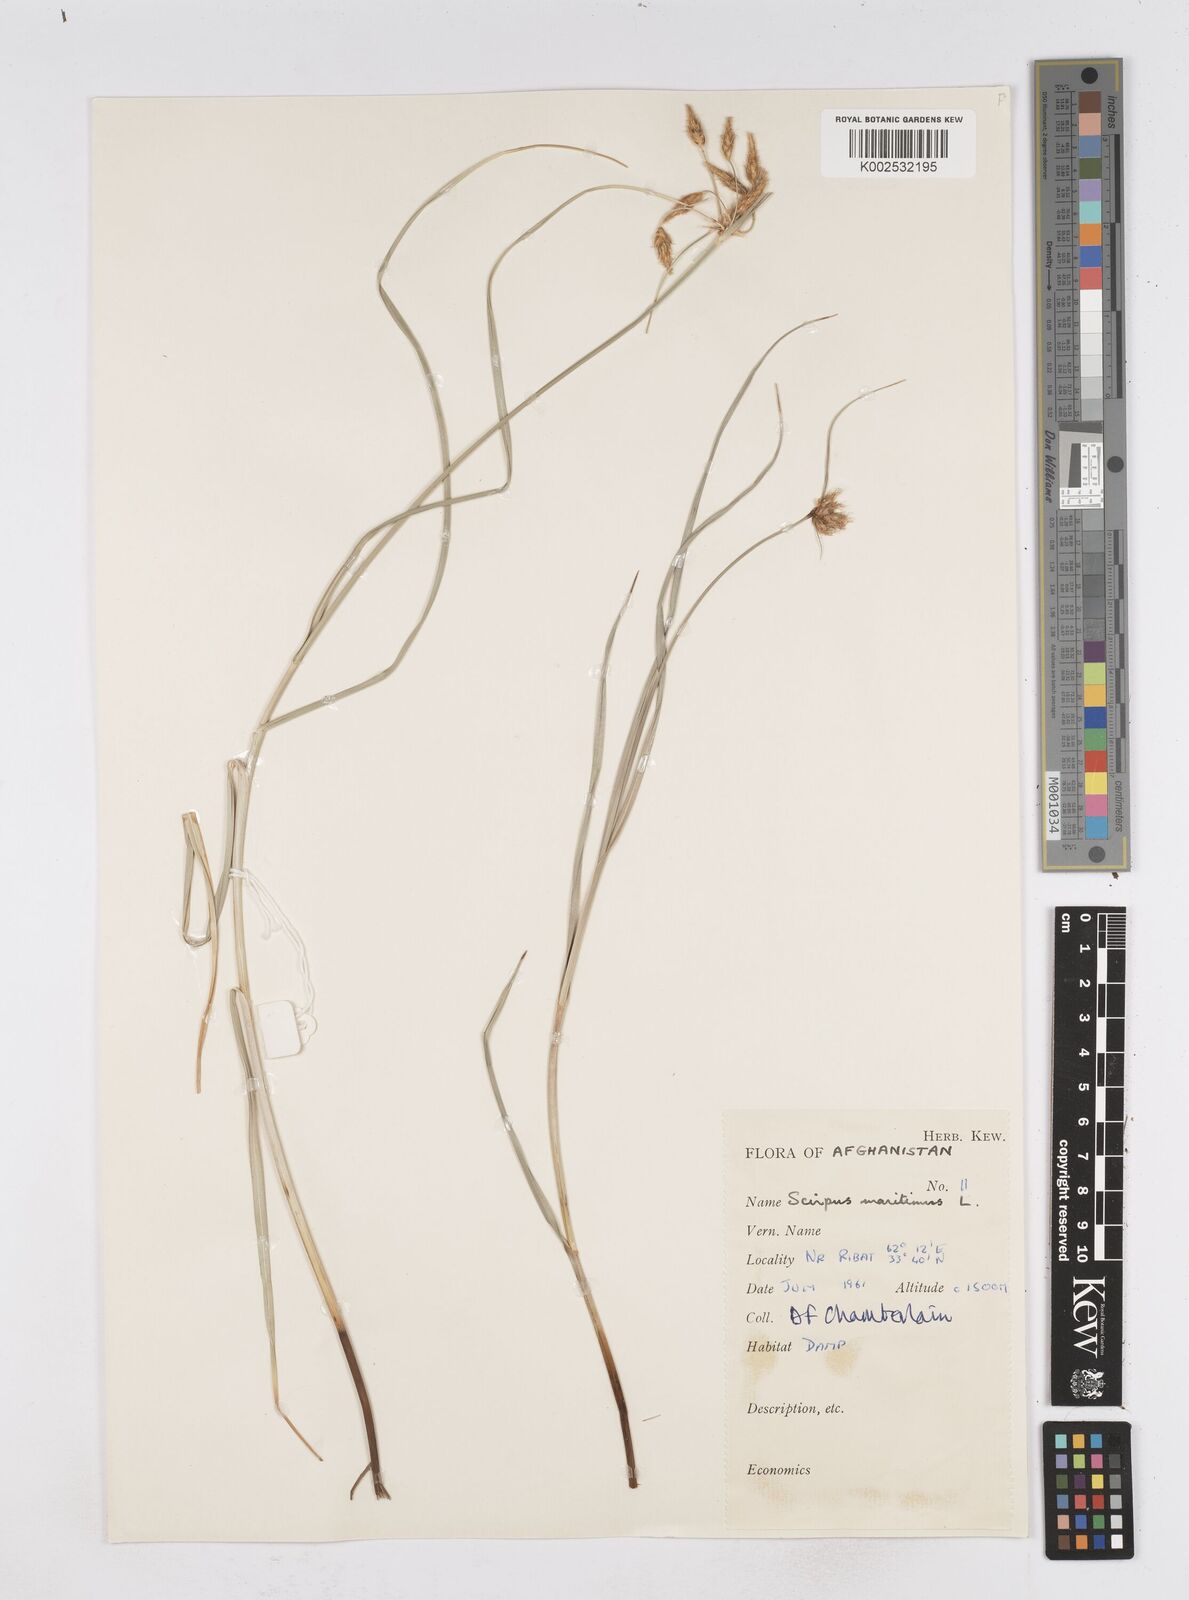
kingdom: Plantae
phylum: Tracheophyta
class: Liliopsida
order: Poales
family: Cyperaceae
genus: Bolboschoenus
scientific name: Bolboschoenus maritimus
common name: Sea club-rush
